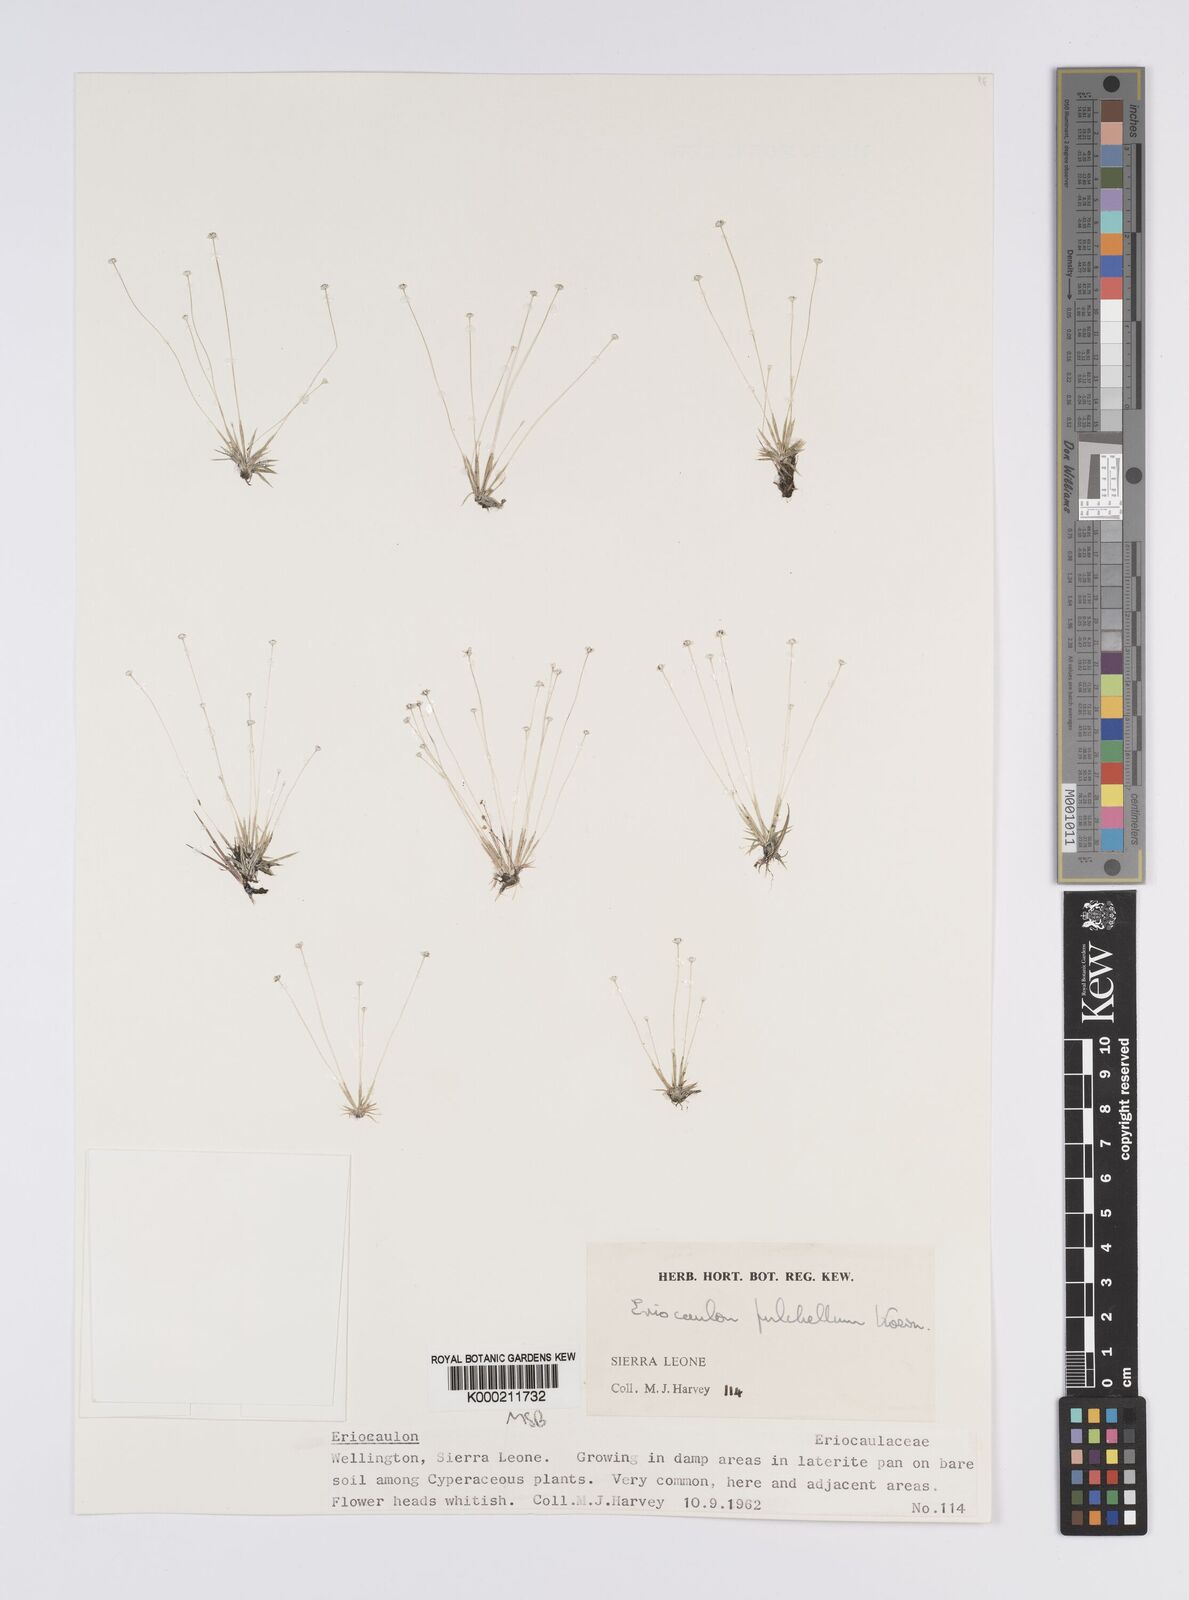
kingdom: Plantae
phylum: Tracheophyta
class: Liliopsida
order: Poales
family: Eriocaulaceae
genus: Eriocaulon
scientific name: Eriocaulon
